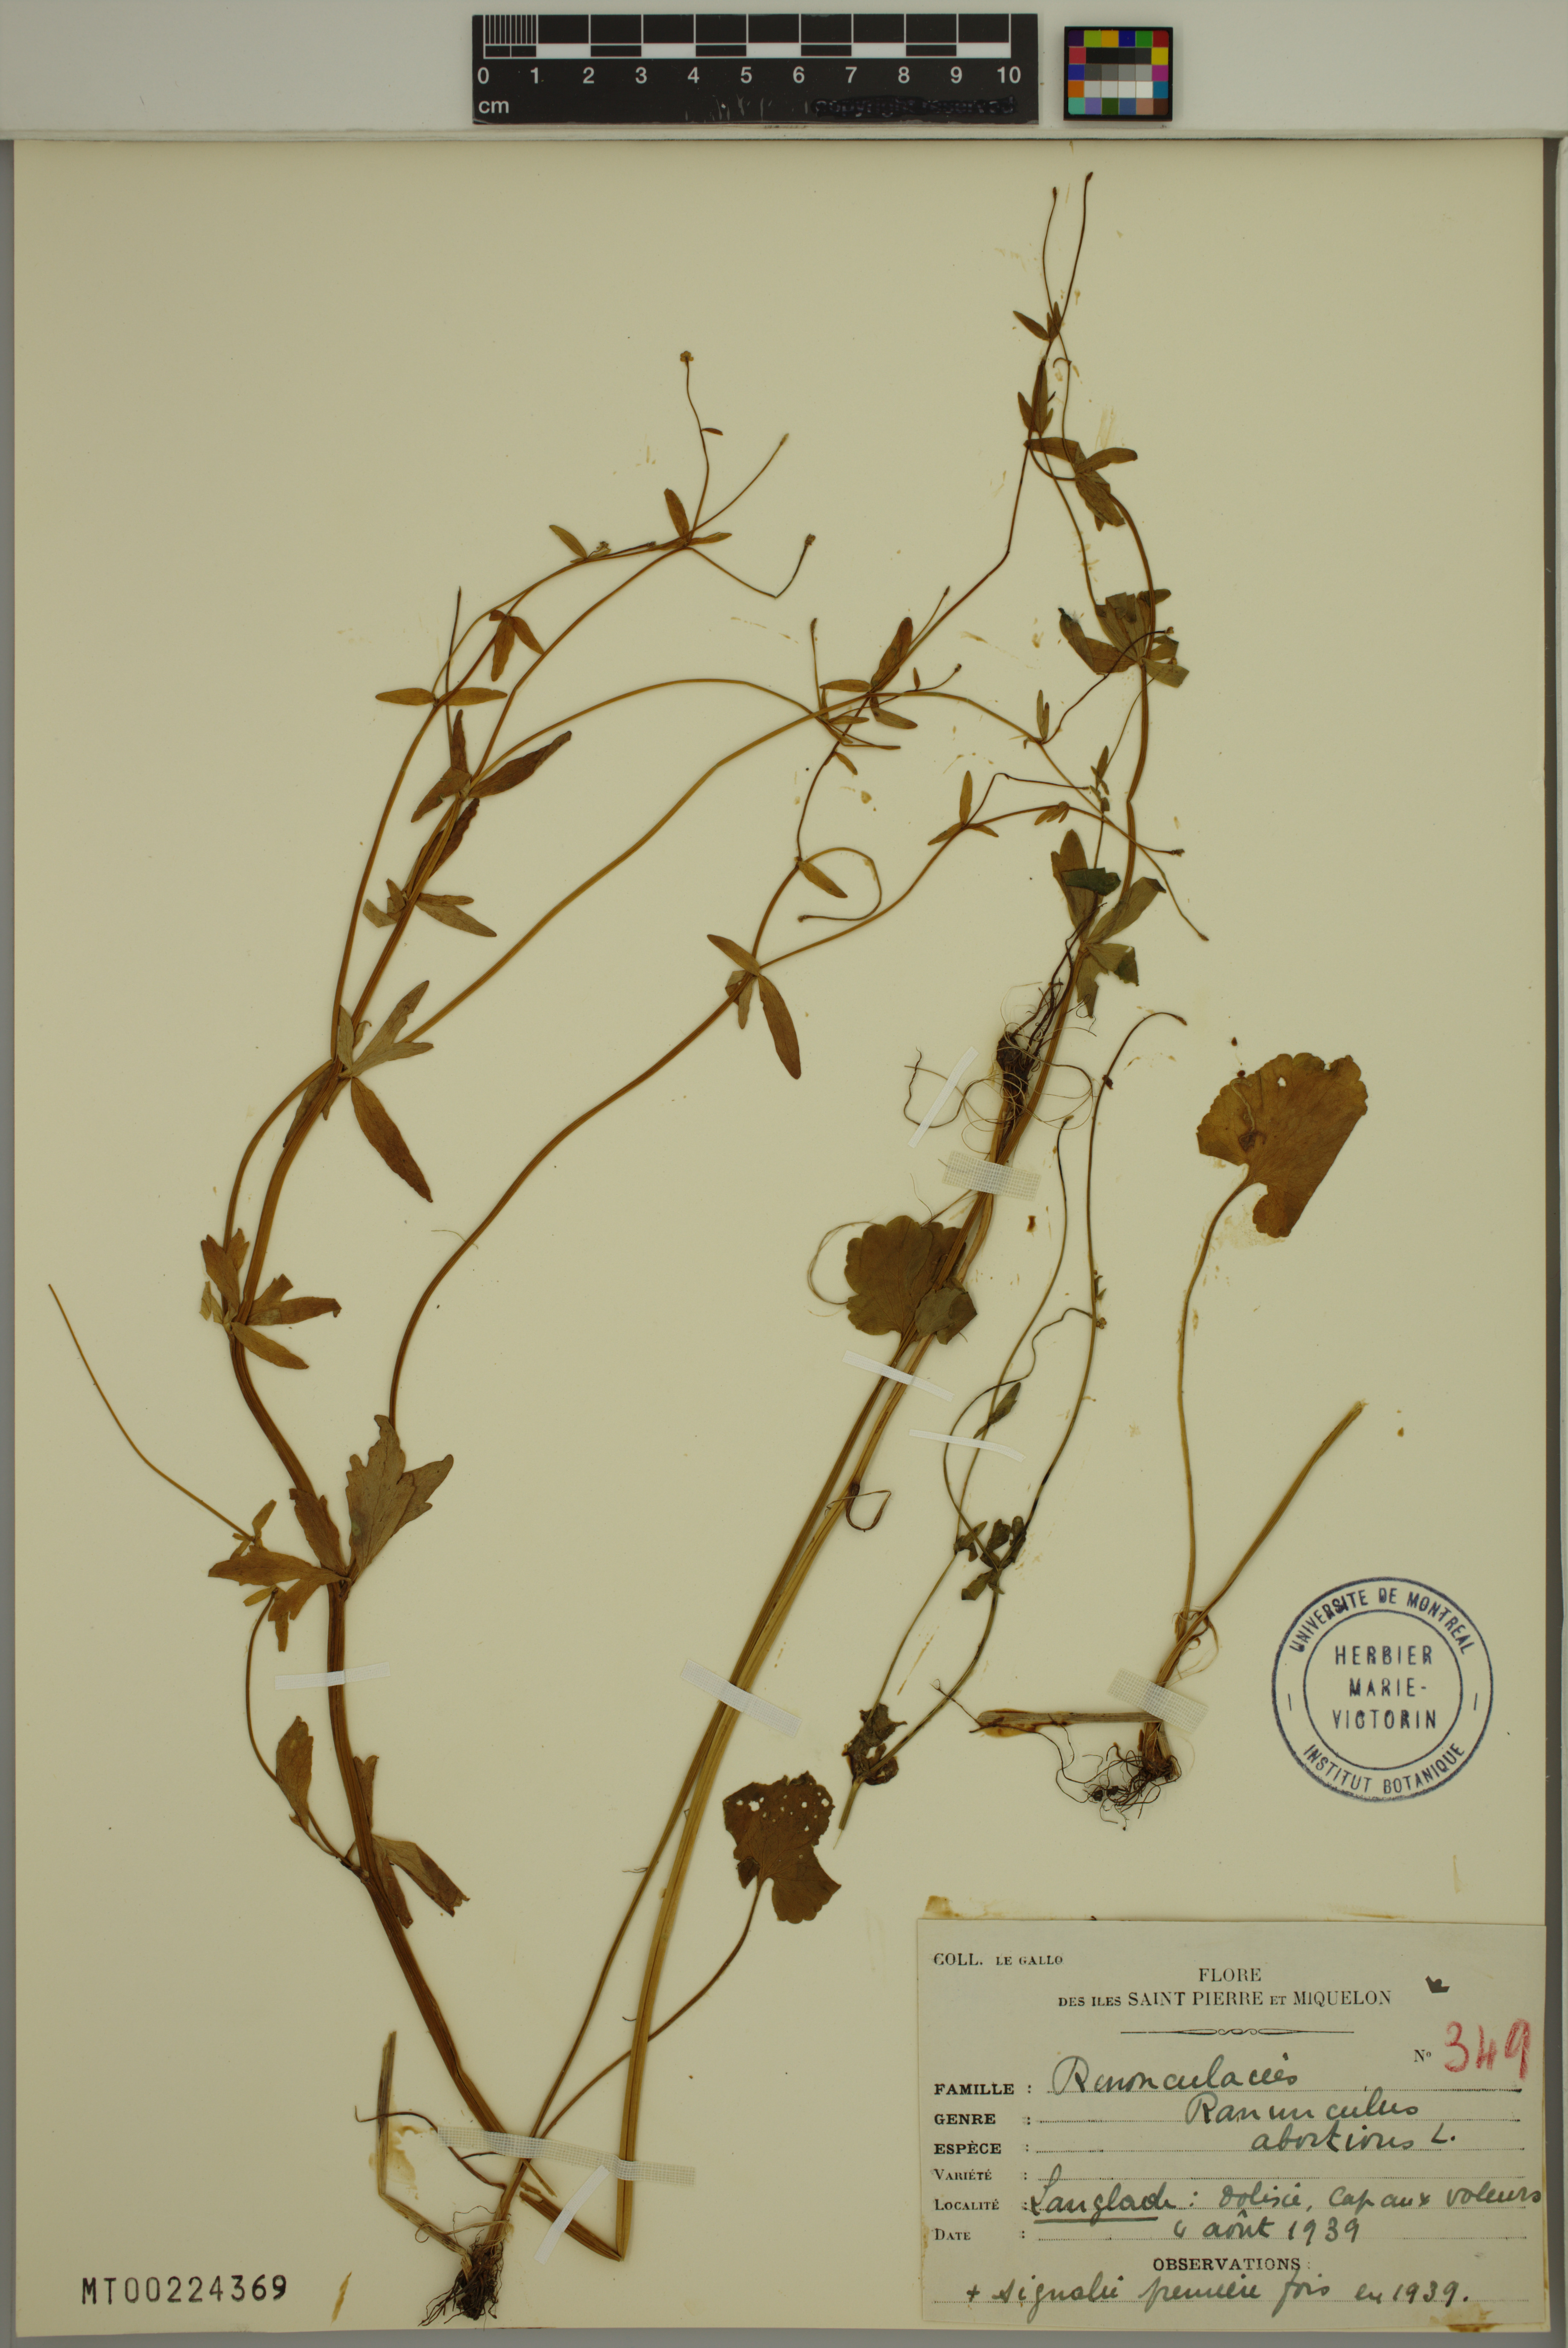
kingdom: Plantae
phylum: Tracheophyta
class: Magnoliopsida
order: Ranunculales
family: Ranunculaceae
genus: Ranunculus
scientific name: Ranunculus abortivus
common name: Early wood buttercup
